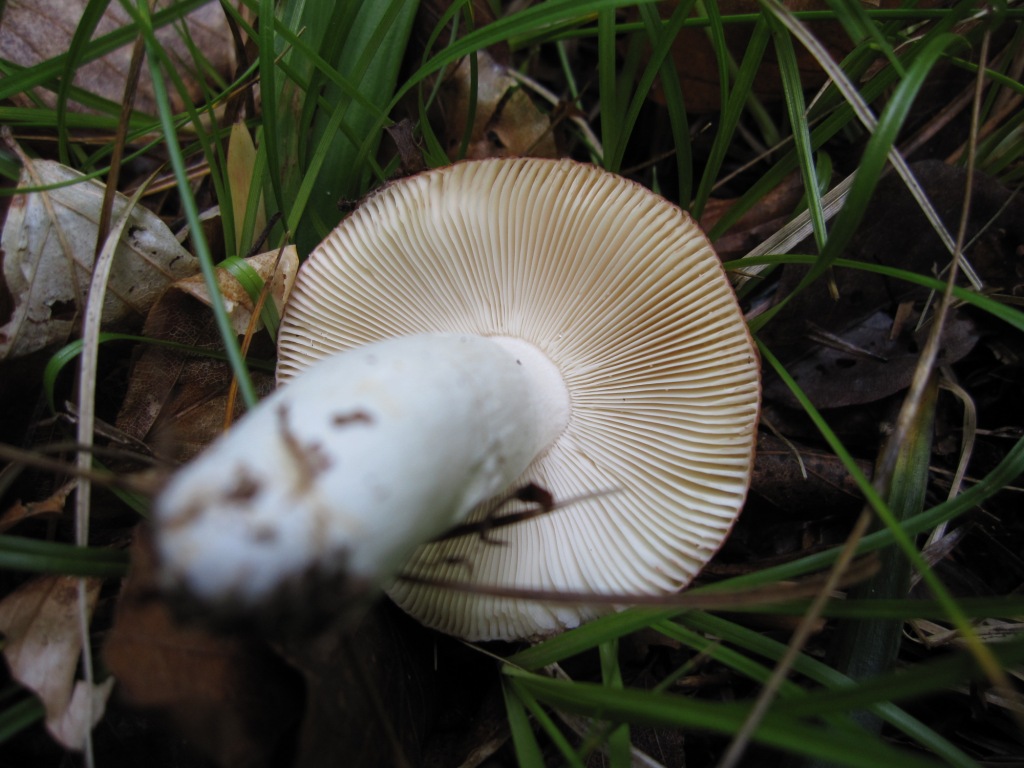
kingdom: Fungi
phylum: Basidiomycota
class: Agaricomycetes
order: Russulales
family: Russulaceae
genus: Russula
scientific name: Russula velenovskyi
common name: orangerød skørhat
